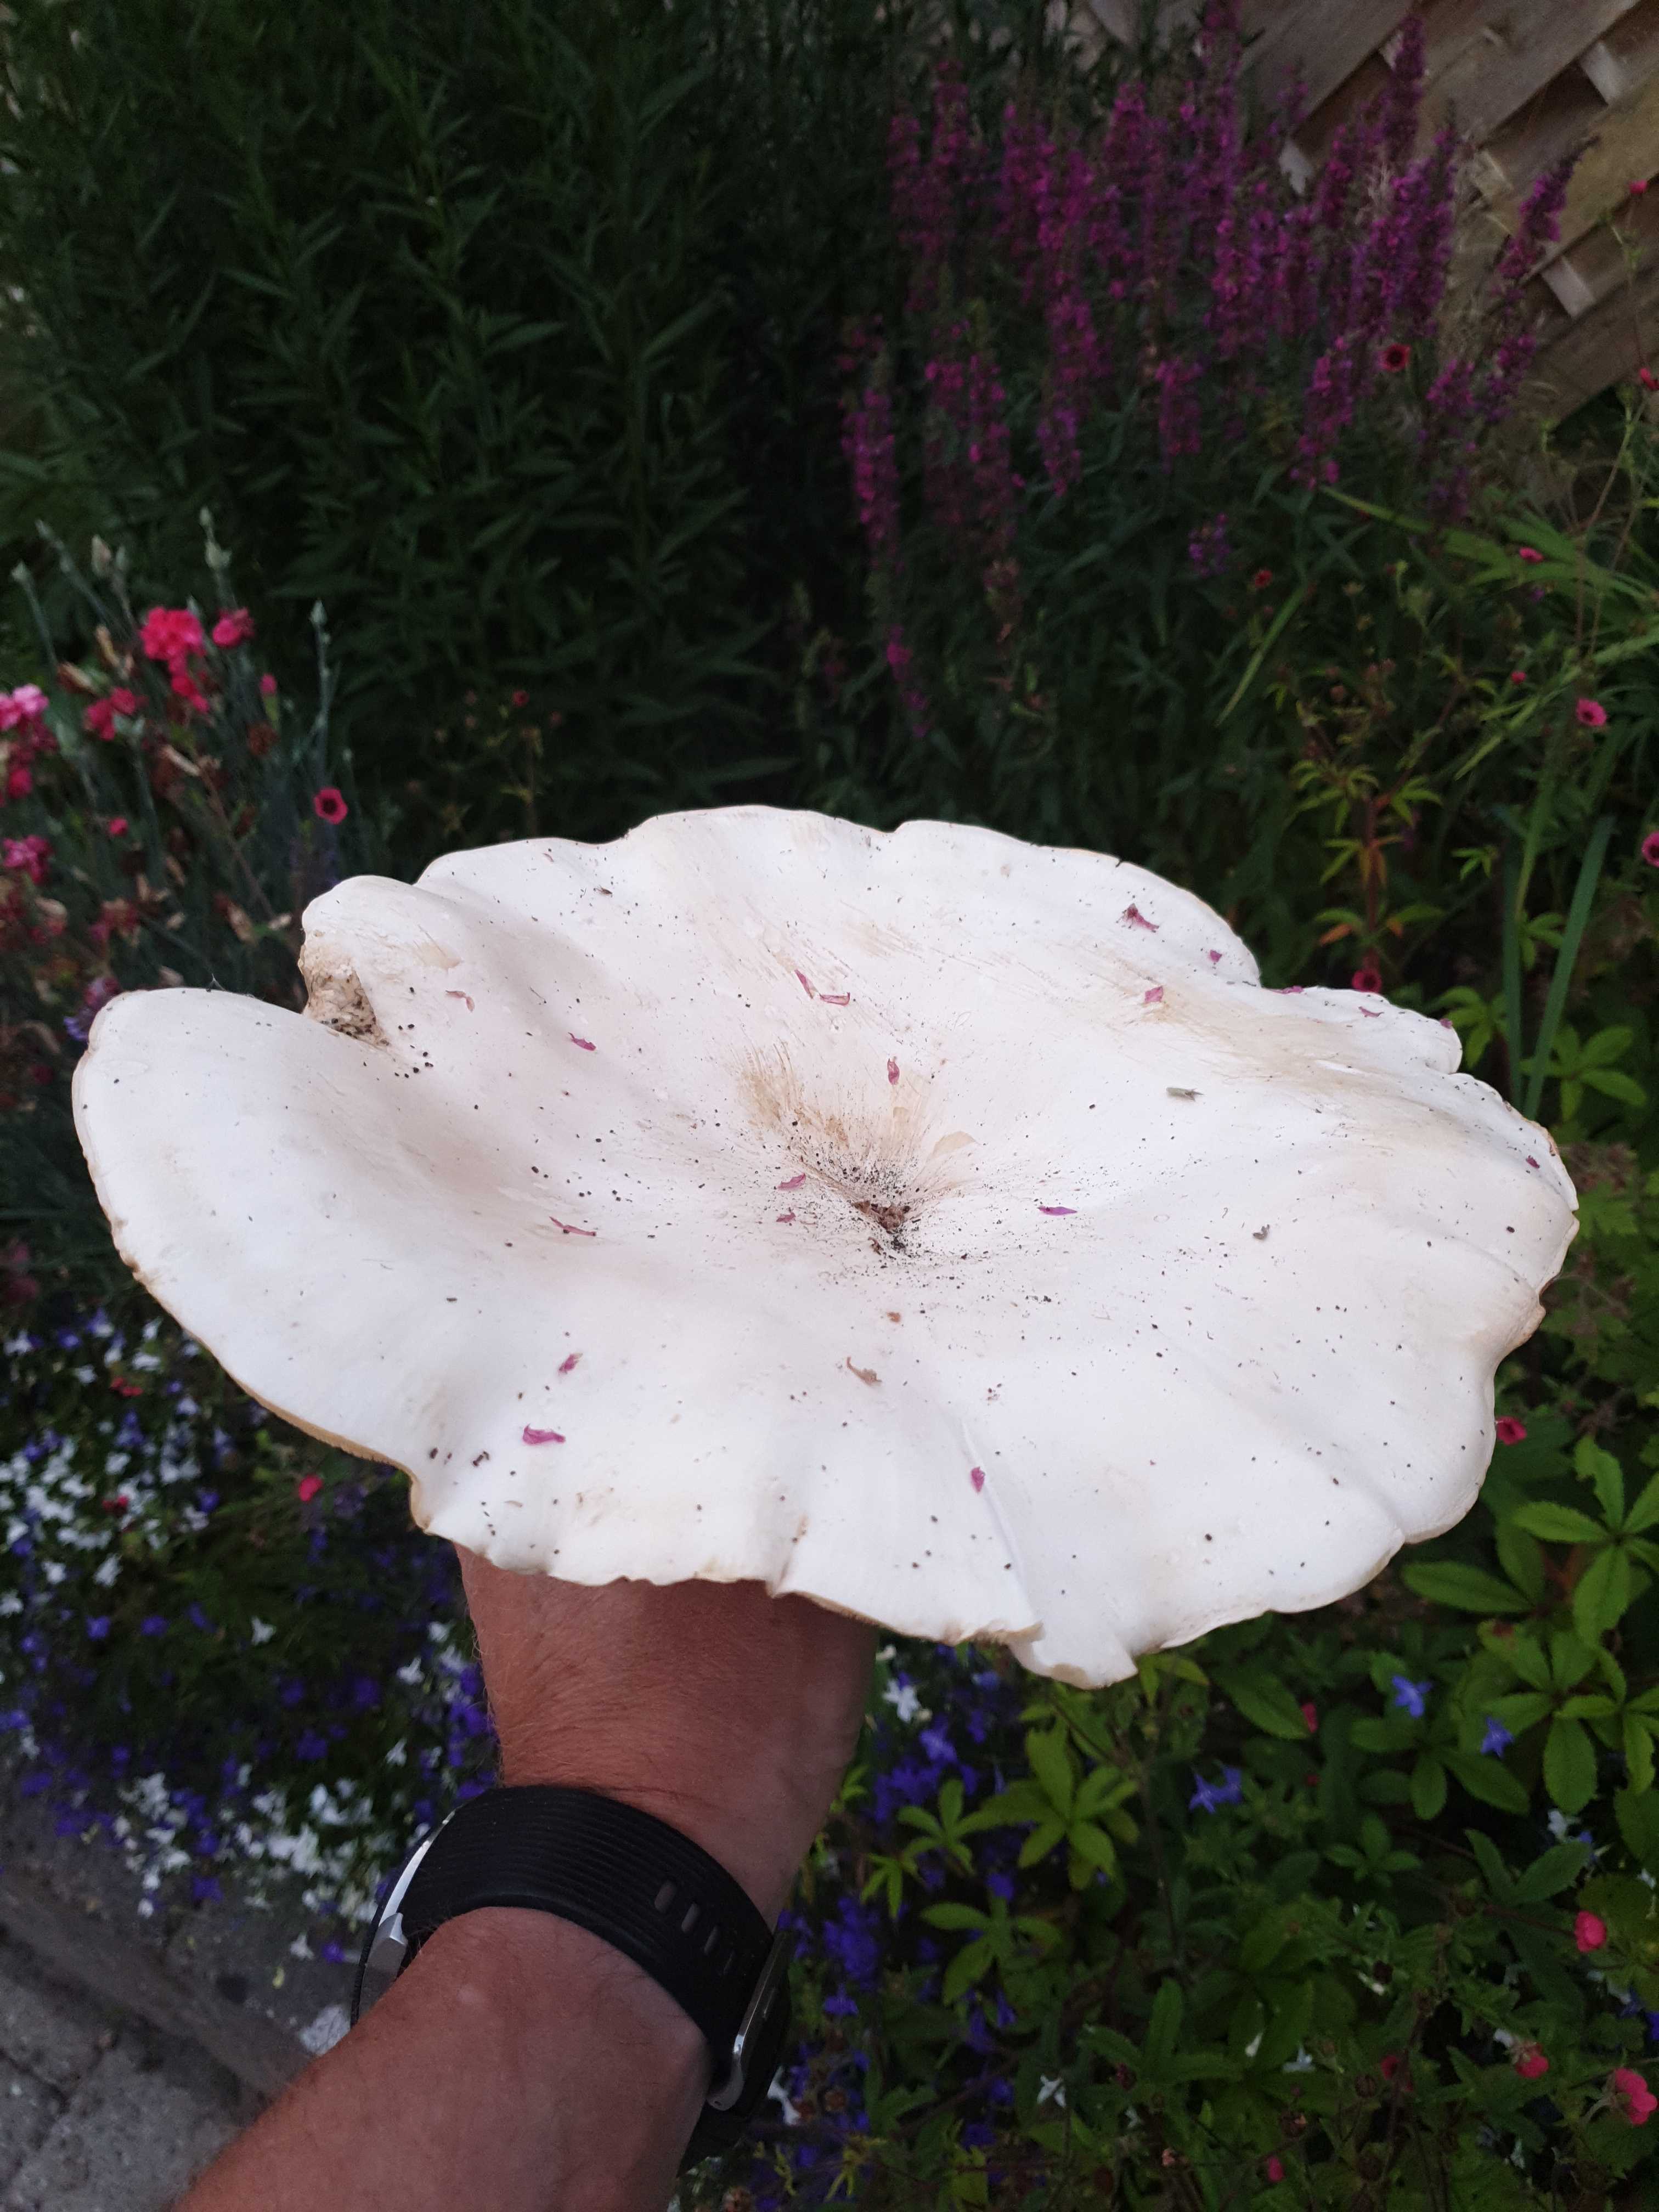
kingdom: Fungi
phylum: Basidiomycota
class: Agaricomycetes
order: Agaricales
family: Tricholomataceae
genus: Aspropaxillus
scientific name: Aspropaxillus giganteus
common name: kæmpe-tragtridderhat
